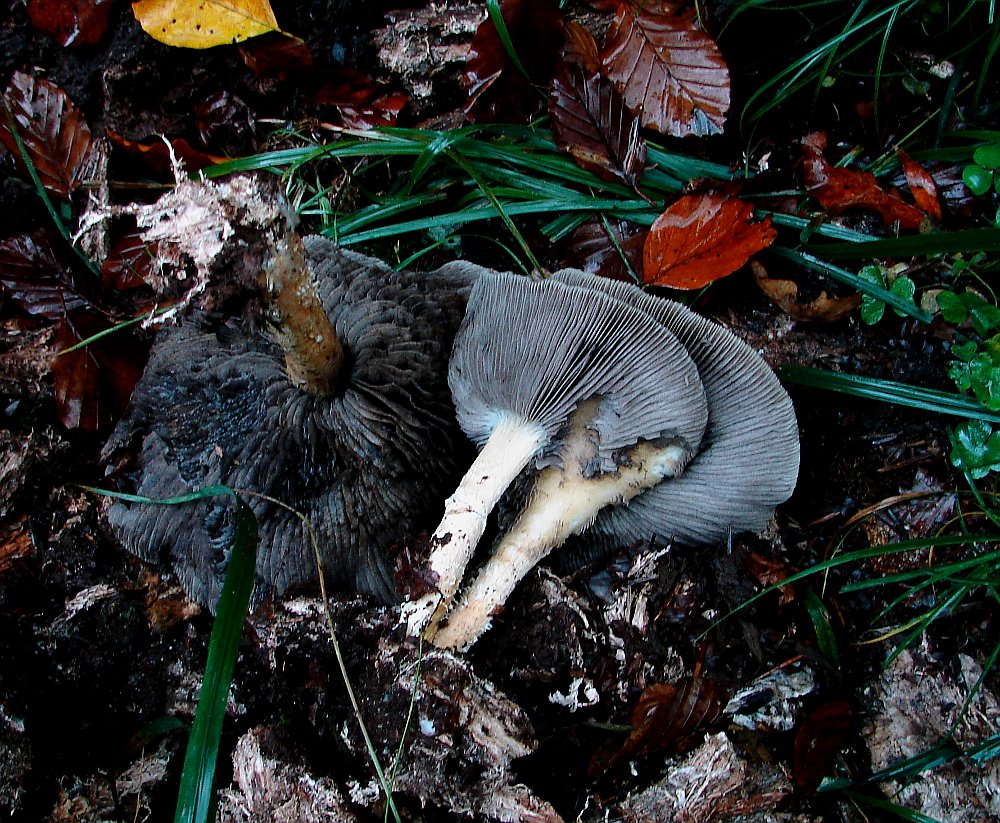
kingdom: Fungi
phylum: Basidiomycota
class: Agaricomycetes
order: Agaricales
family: Strophariaceae
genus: Stropharia
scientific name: Stropharia hornemannii
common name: nordisk bredblad
